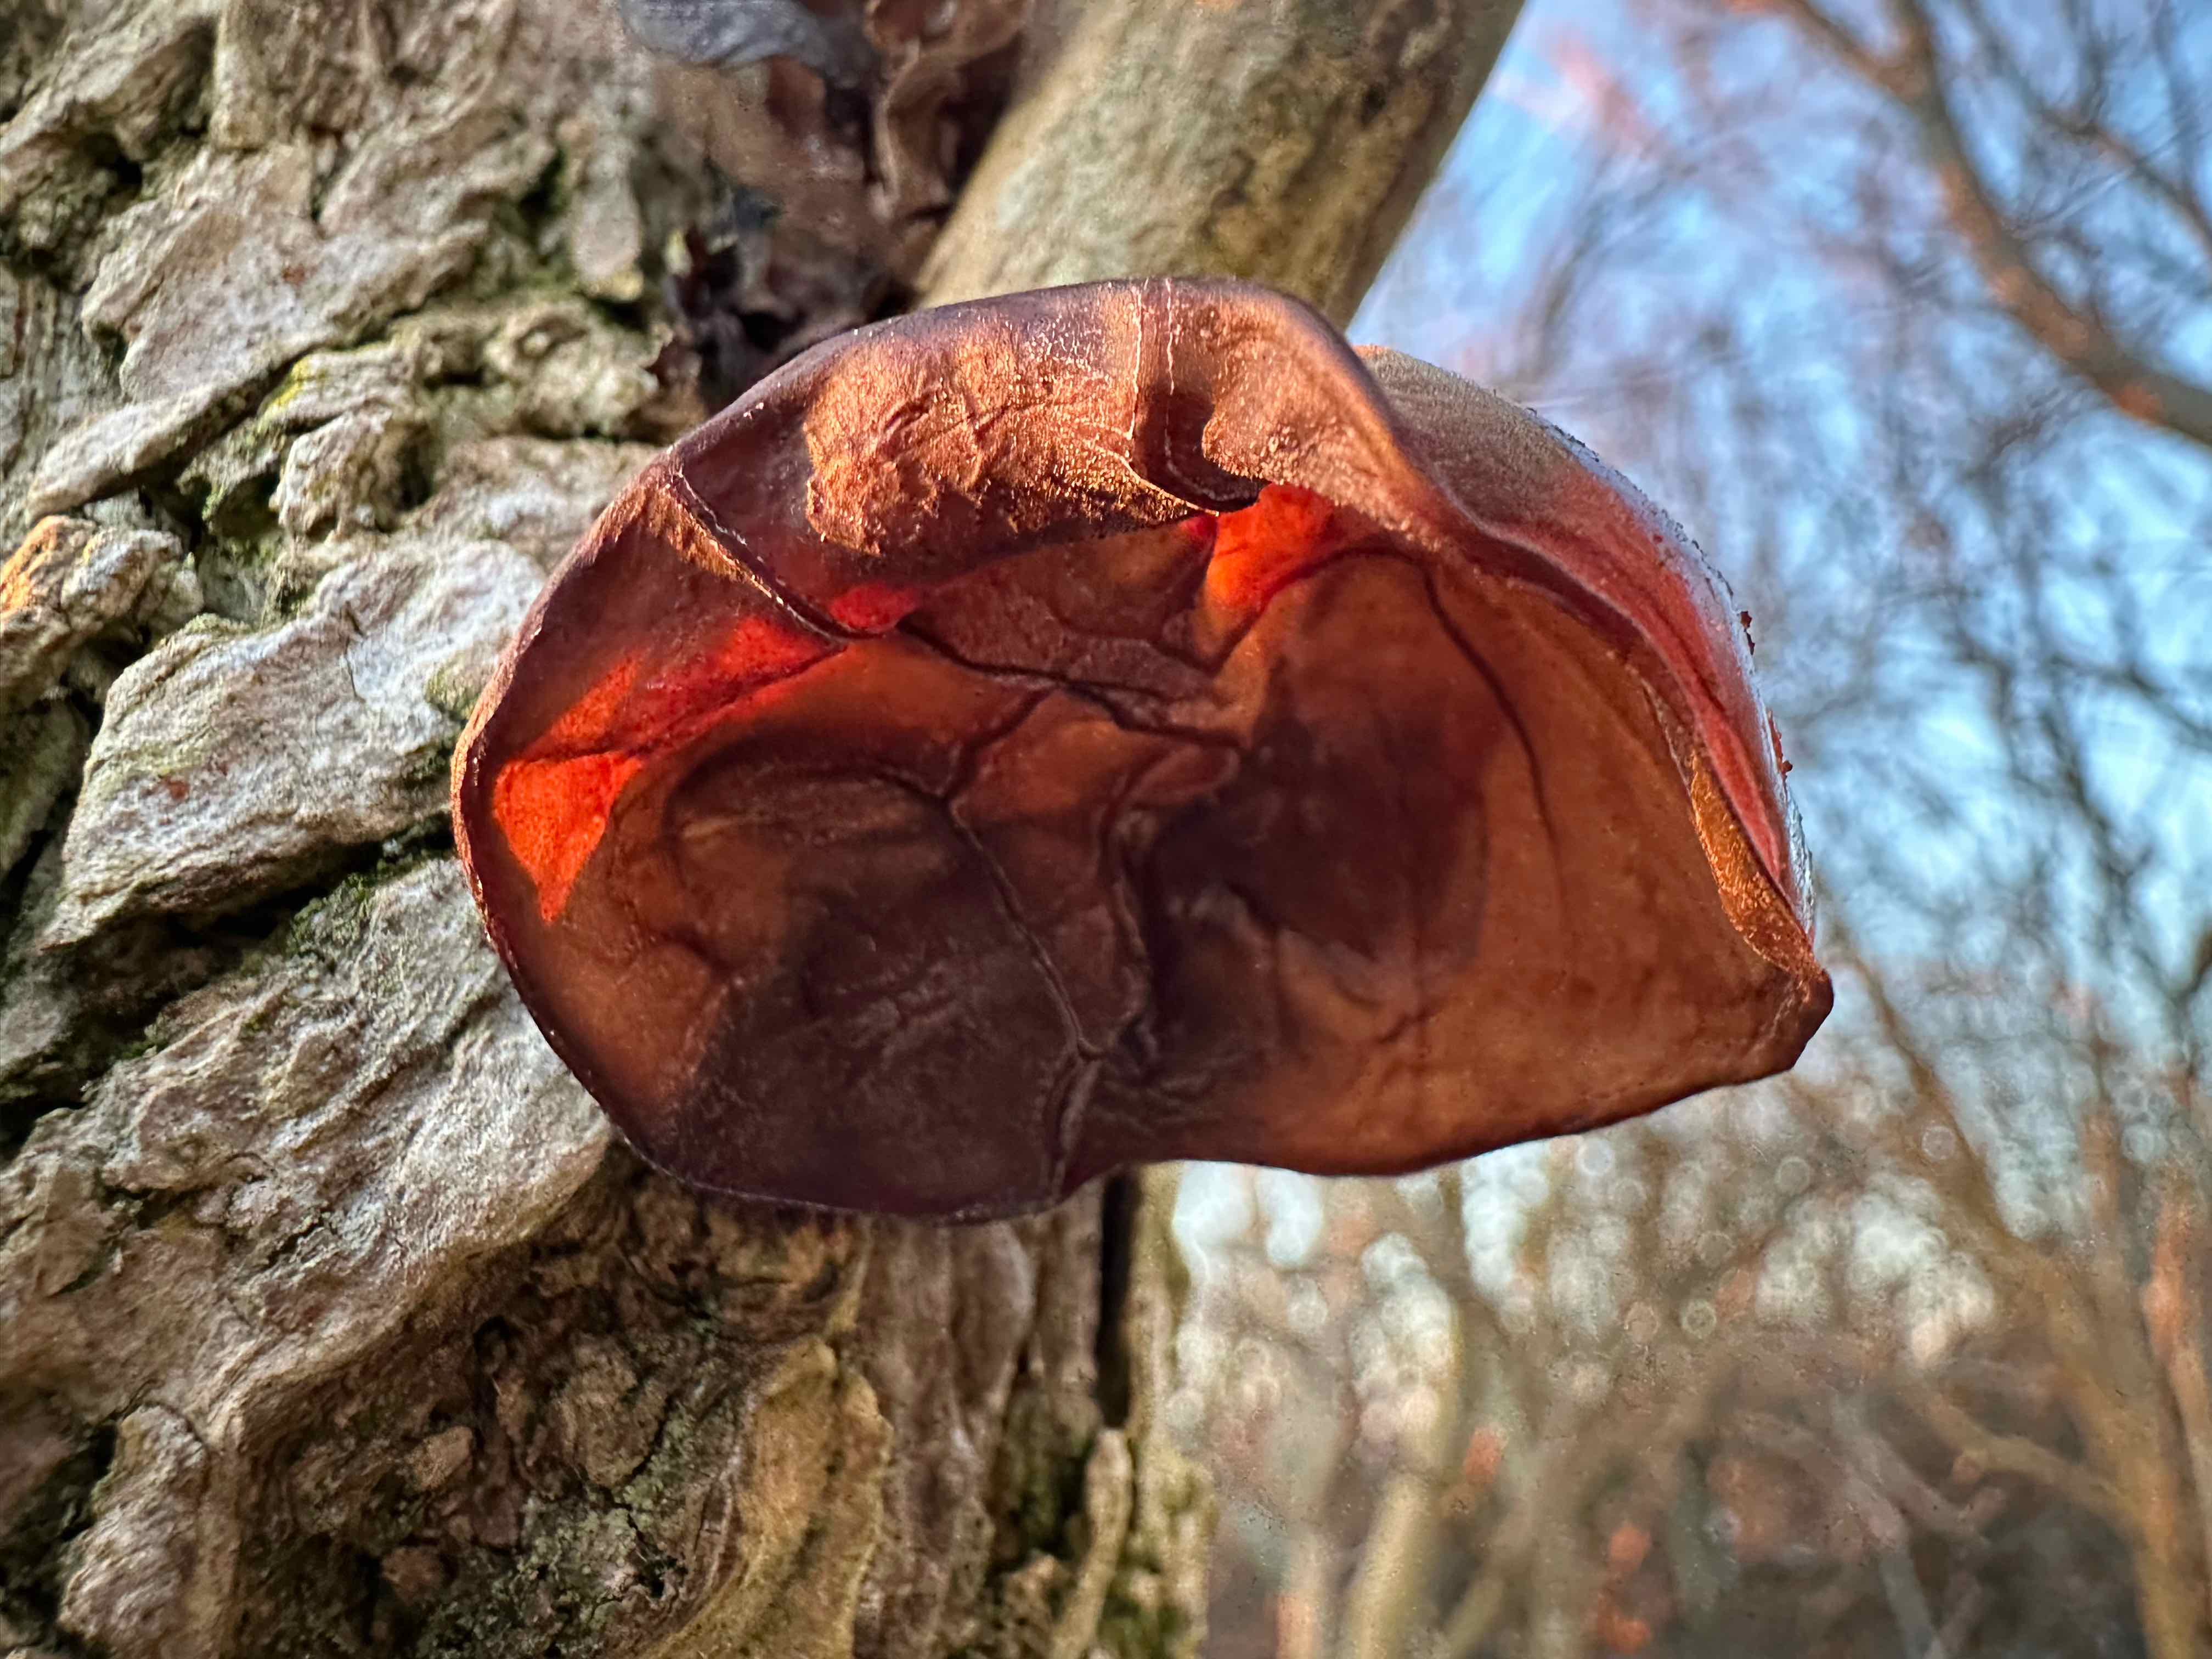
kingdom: Fungi
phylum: Basidiomycota
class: Agaricomycetes
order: Auriculariales
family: Auriculariaceae
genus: Auricularia
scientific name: Auricularia auricula-judae
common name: almindelig judasøre
